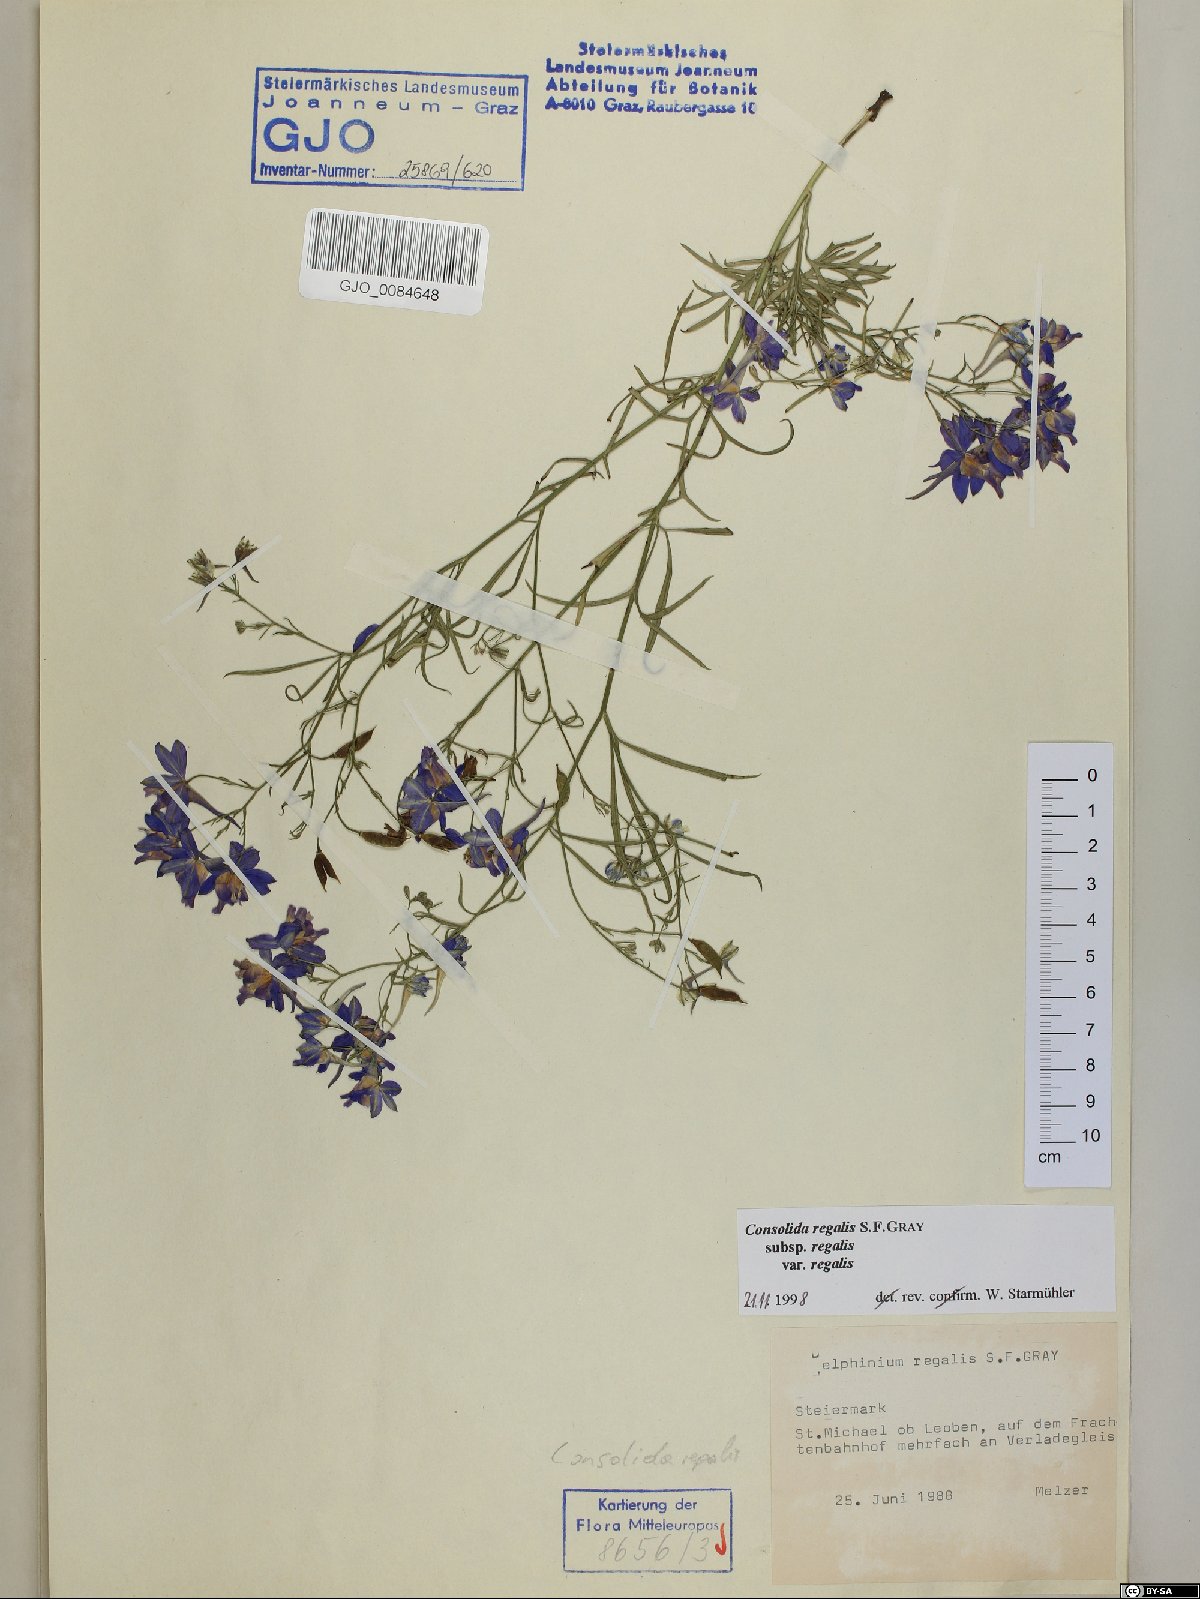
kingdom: Plantae
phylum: Tracheophyta
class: Magnoliopsida
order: Ranunculales
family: Ranunculaceae
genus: Delphinium
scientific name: Delphinium consolida
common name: Branching larkspur
